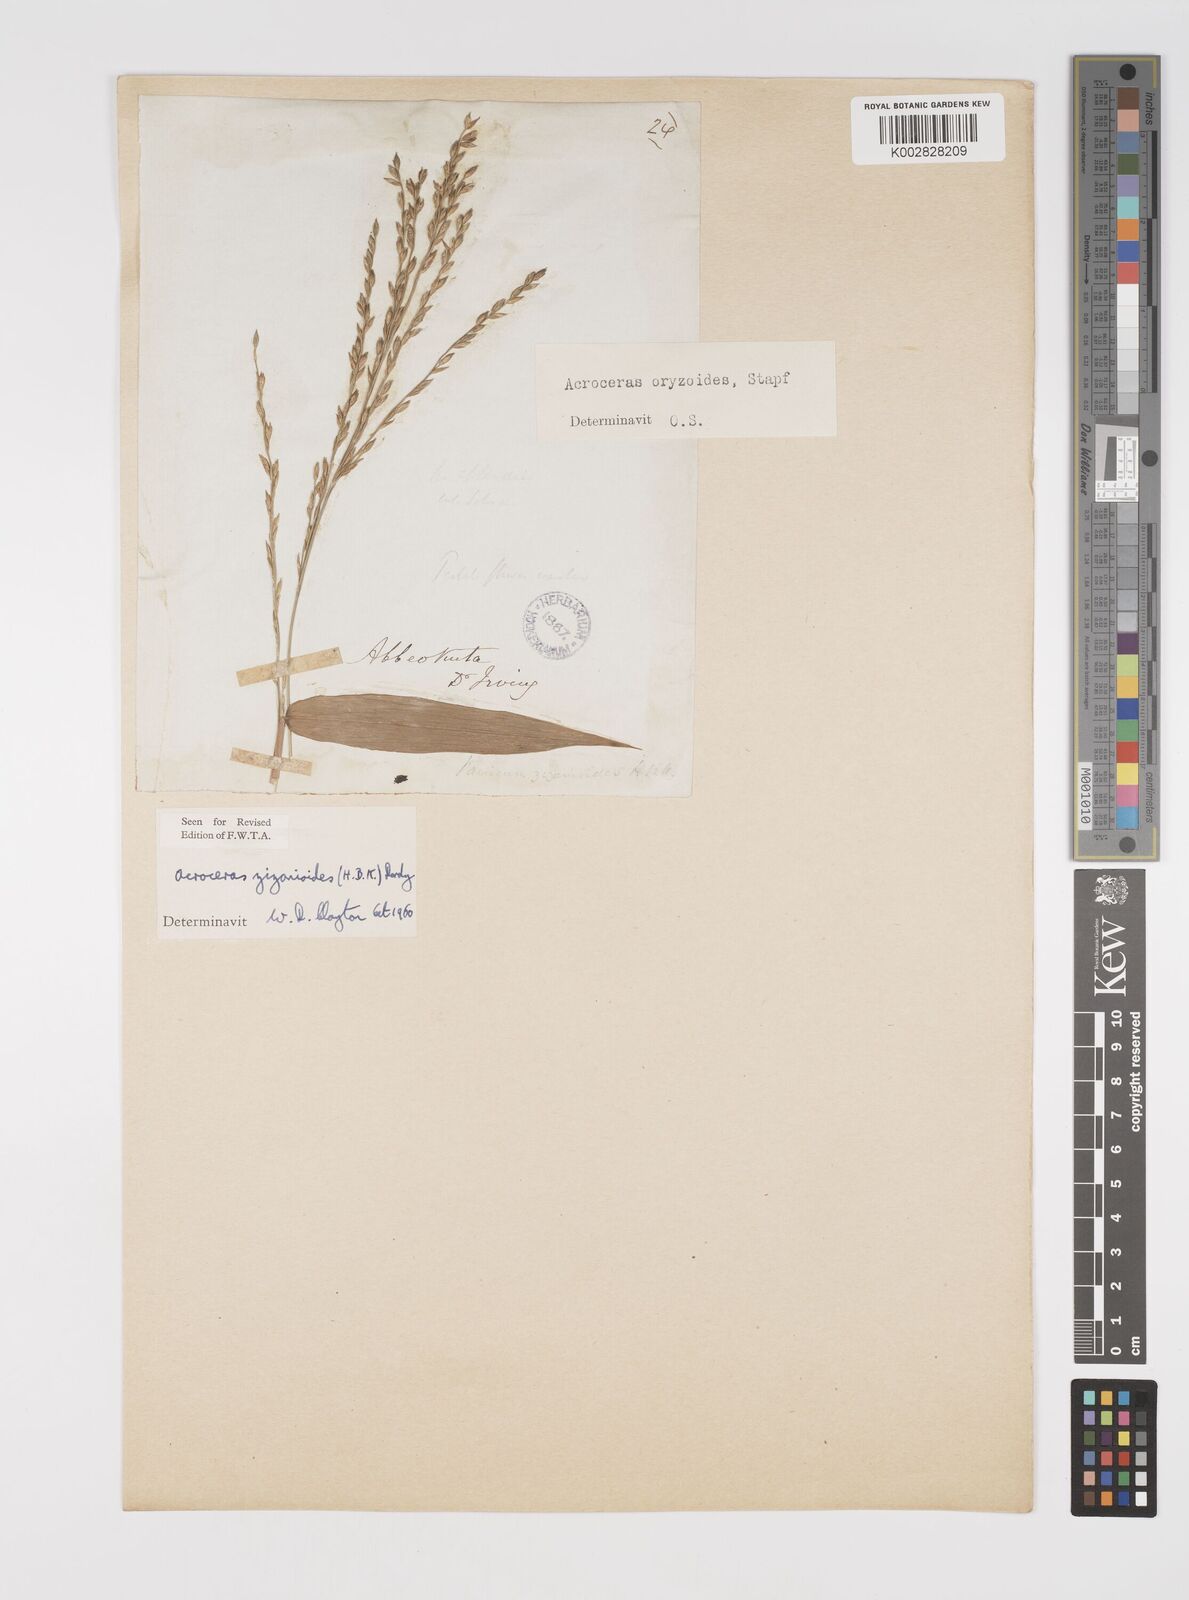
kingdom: Plantae
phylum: Tracheophyta
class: Liliopsida
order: Poales
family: Poaceae
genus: Acroceras
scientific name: Acroceras zizanioides
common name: Oat grass
